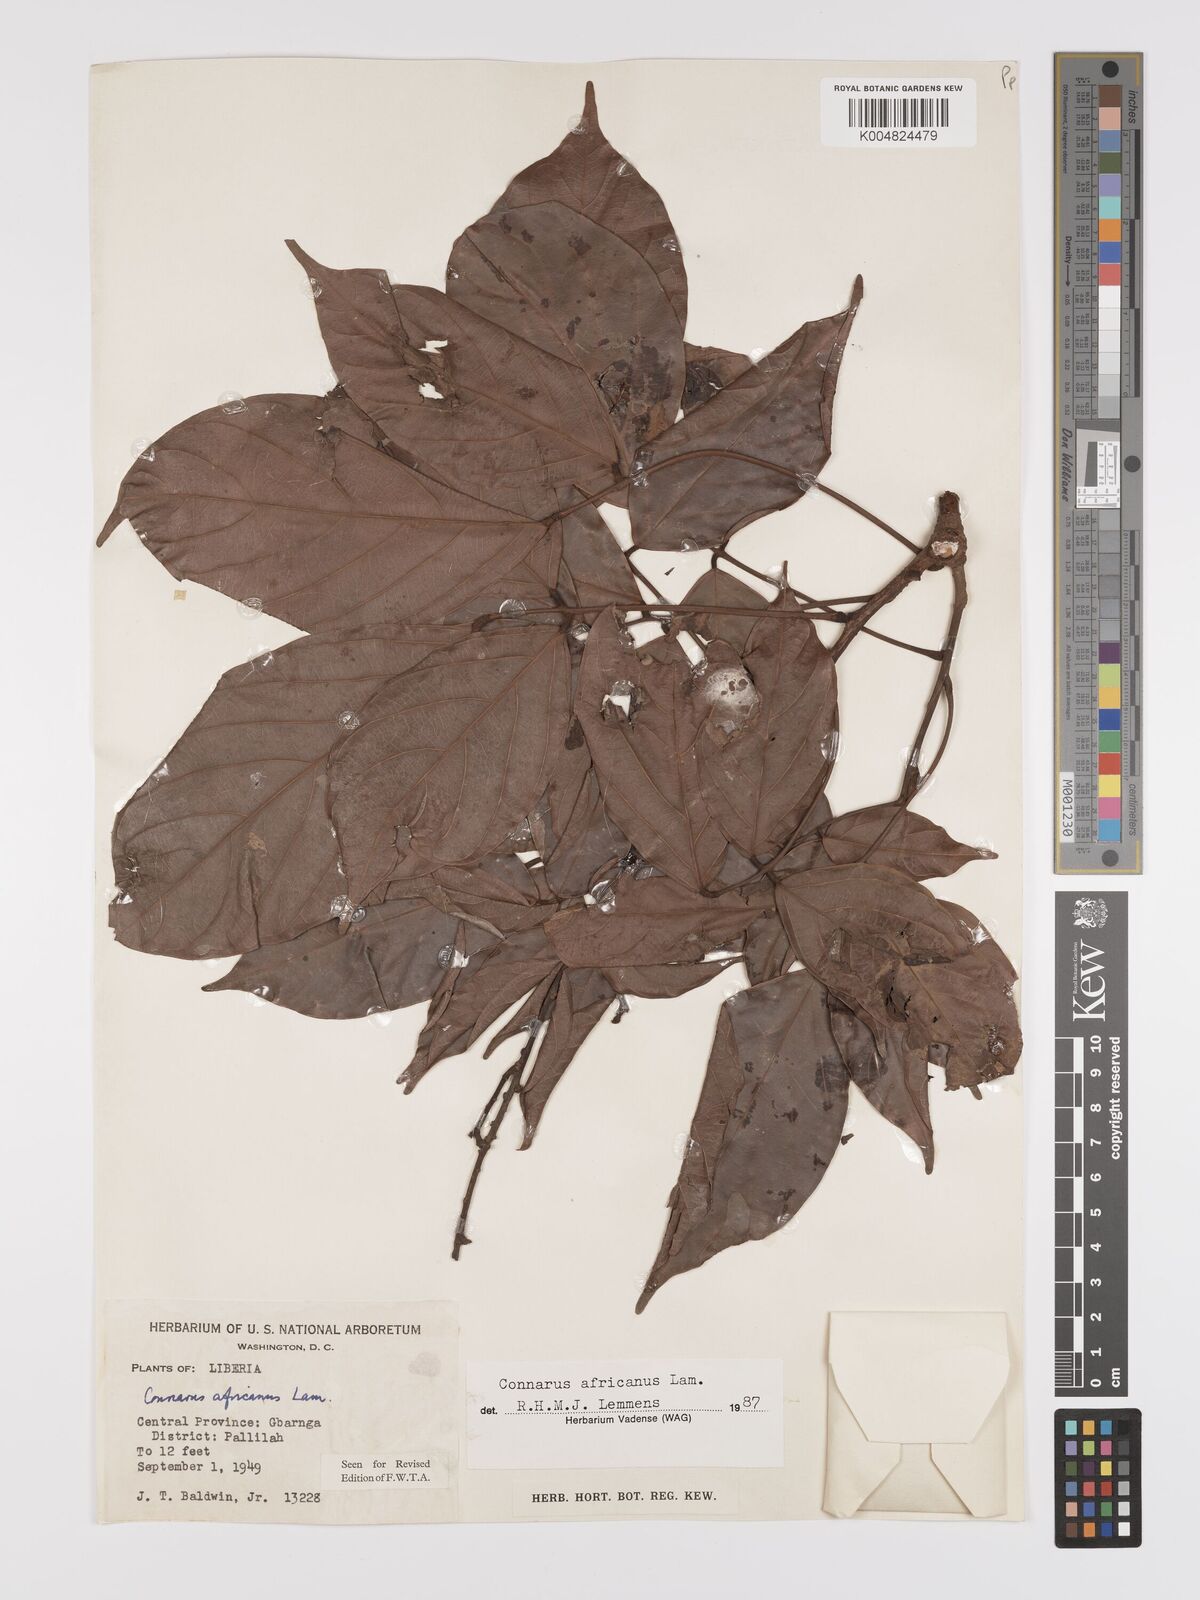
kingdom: Plantae
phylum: Tracheophyta
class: Magnoliopsida
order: Oxalidales
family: Connaraceae
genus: Connarus
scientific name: Connarus africanus
